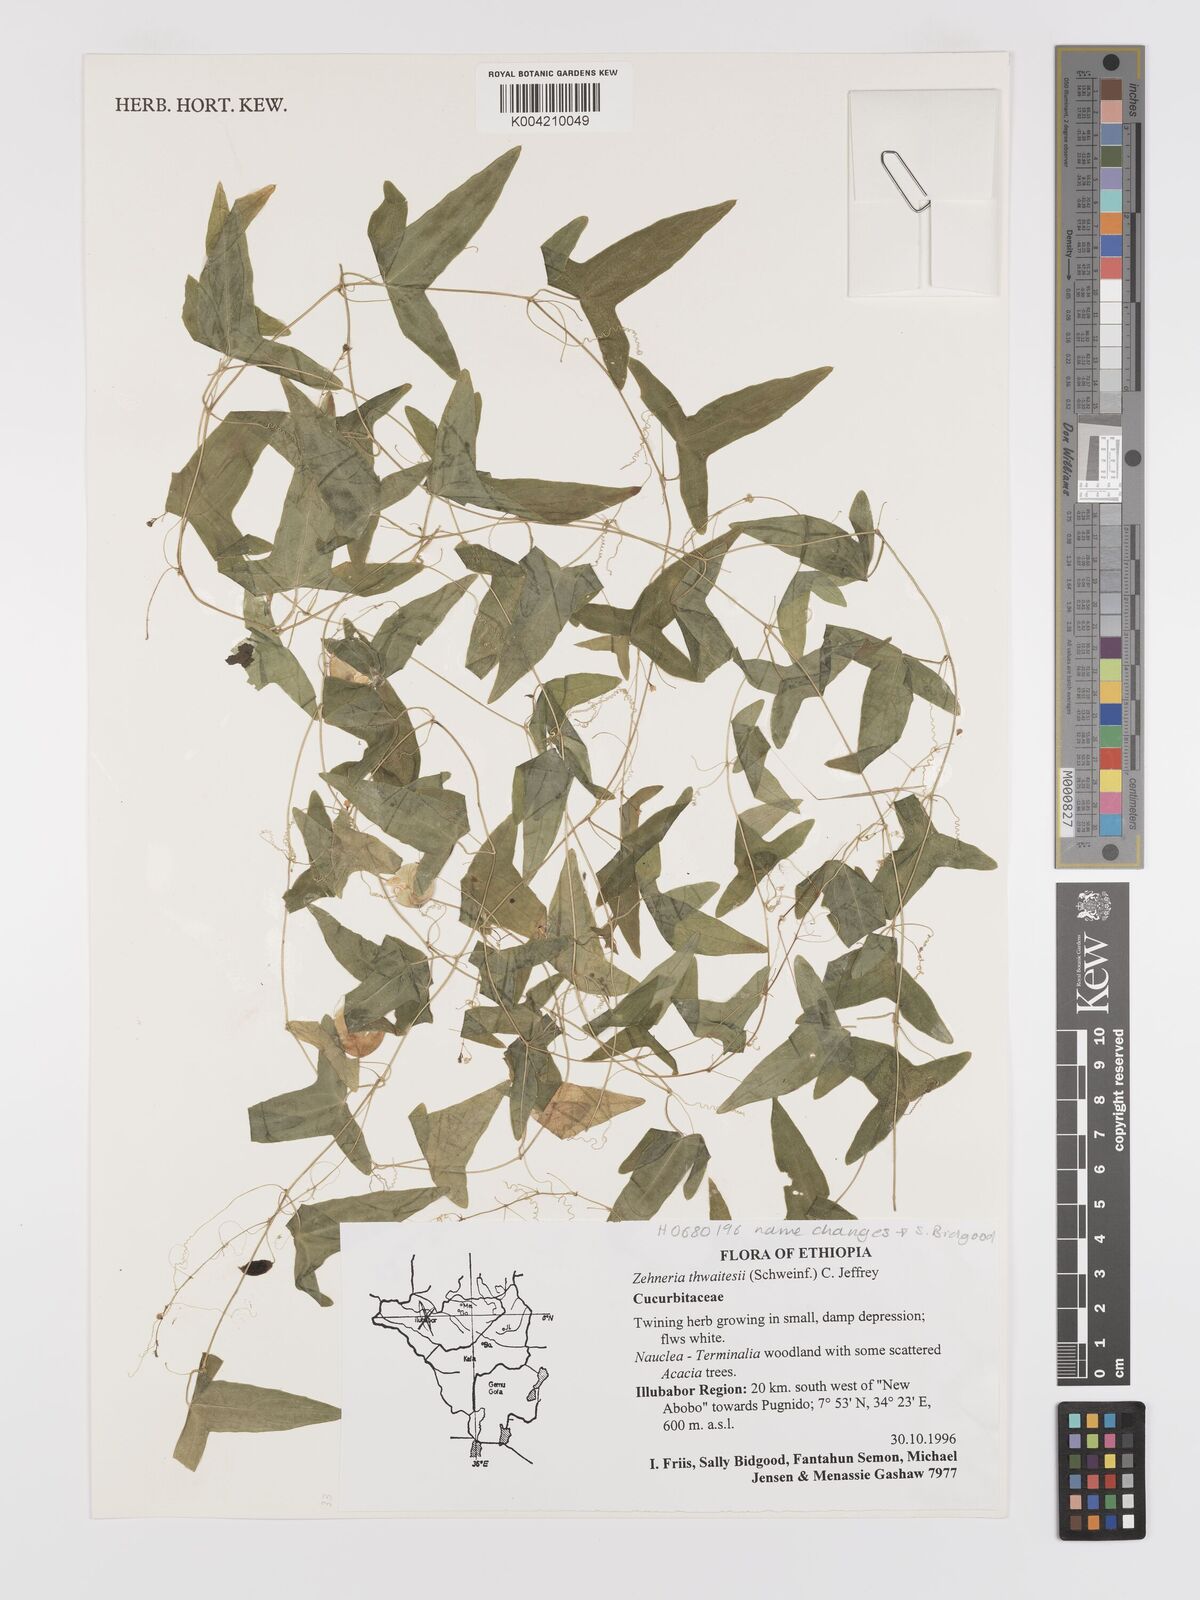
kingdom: Plantae
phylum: Tracheophyta
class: Magnoliopsida
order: Cucurbitales
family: Cucurbitaceae
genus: Zehneria
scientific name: Zehneria thwaitesii
